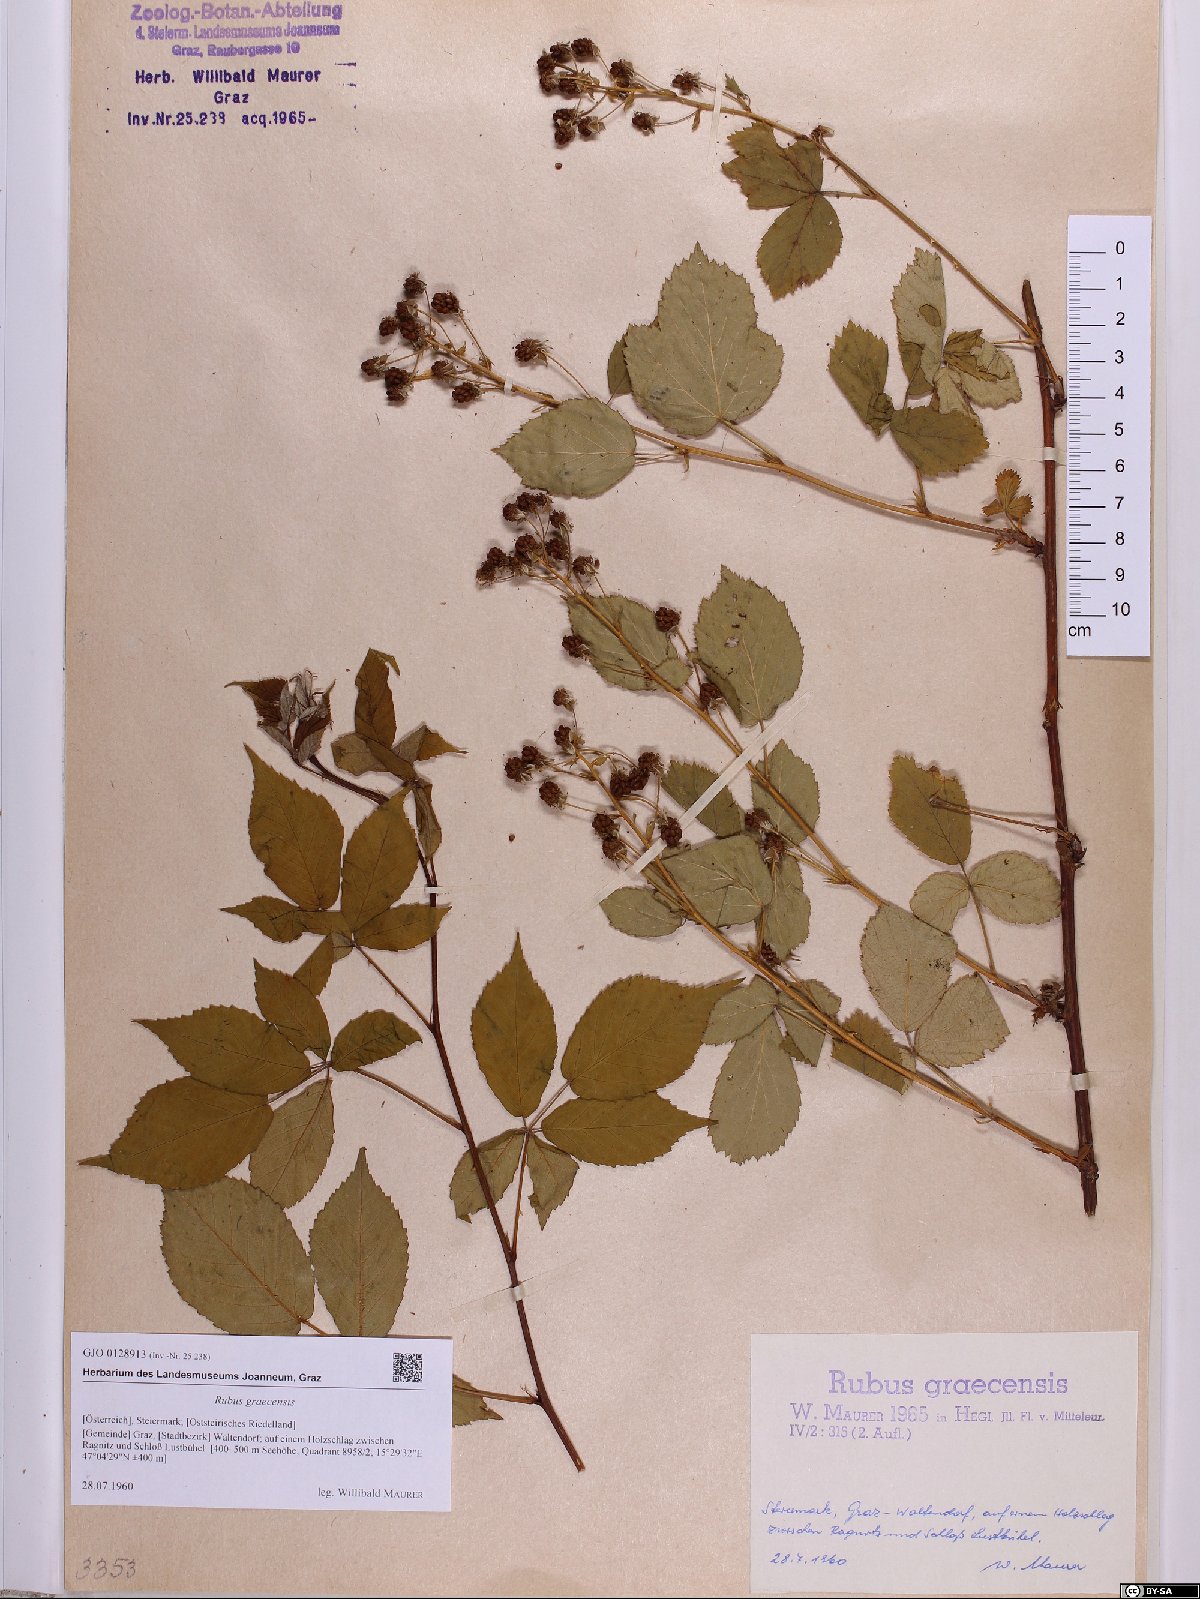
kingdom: Plantae
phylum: Tracheophyta
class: Magnoliopsida
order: Rosales
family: Rosaceae
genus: Rubus
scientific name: Rubus graecensis
